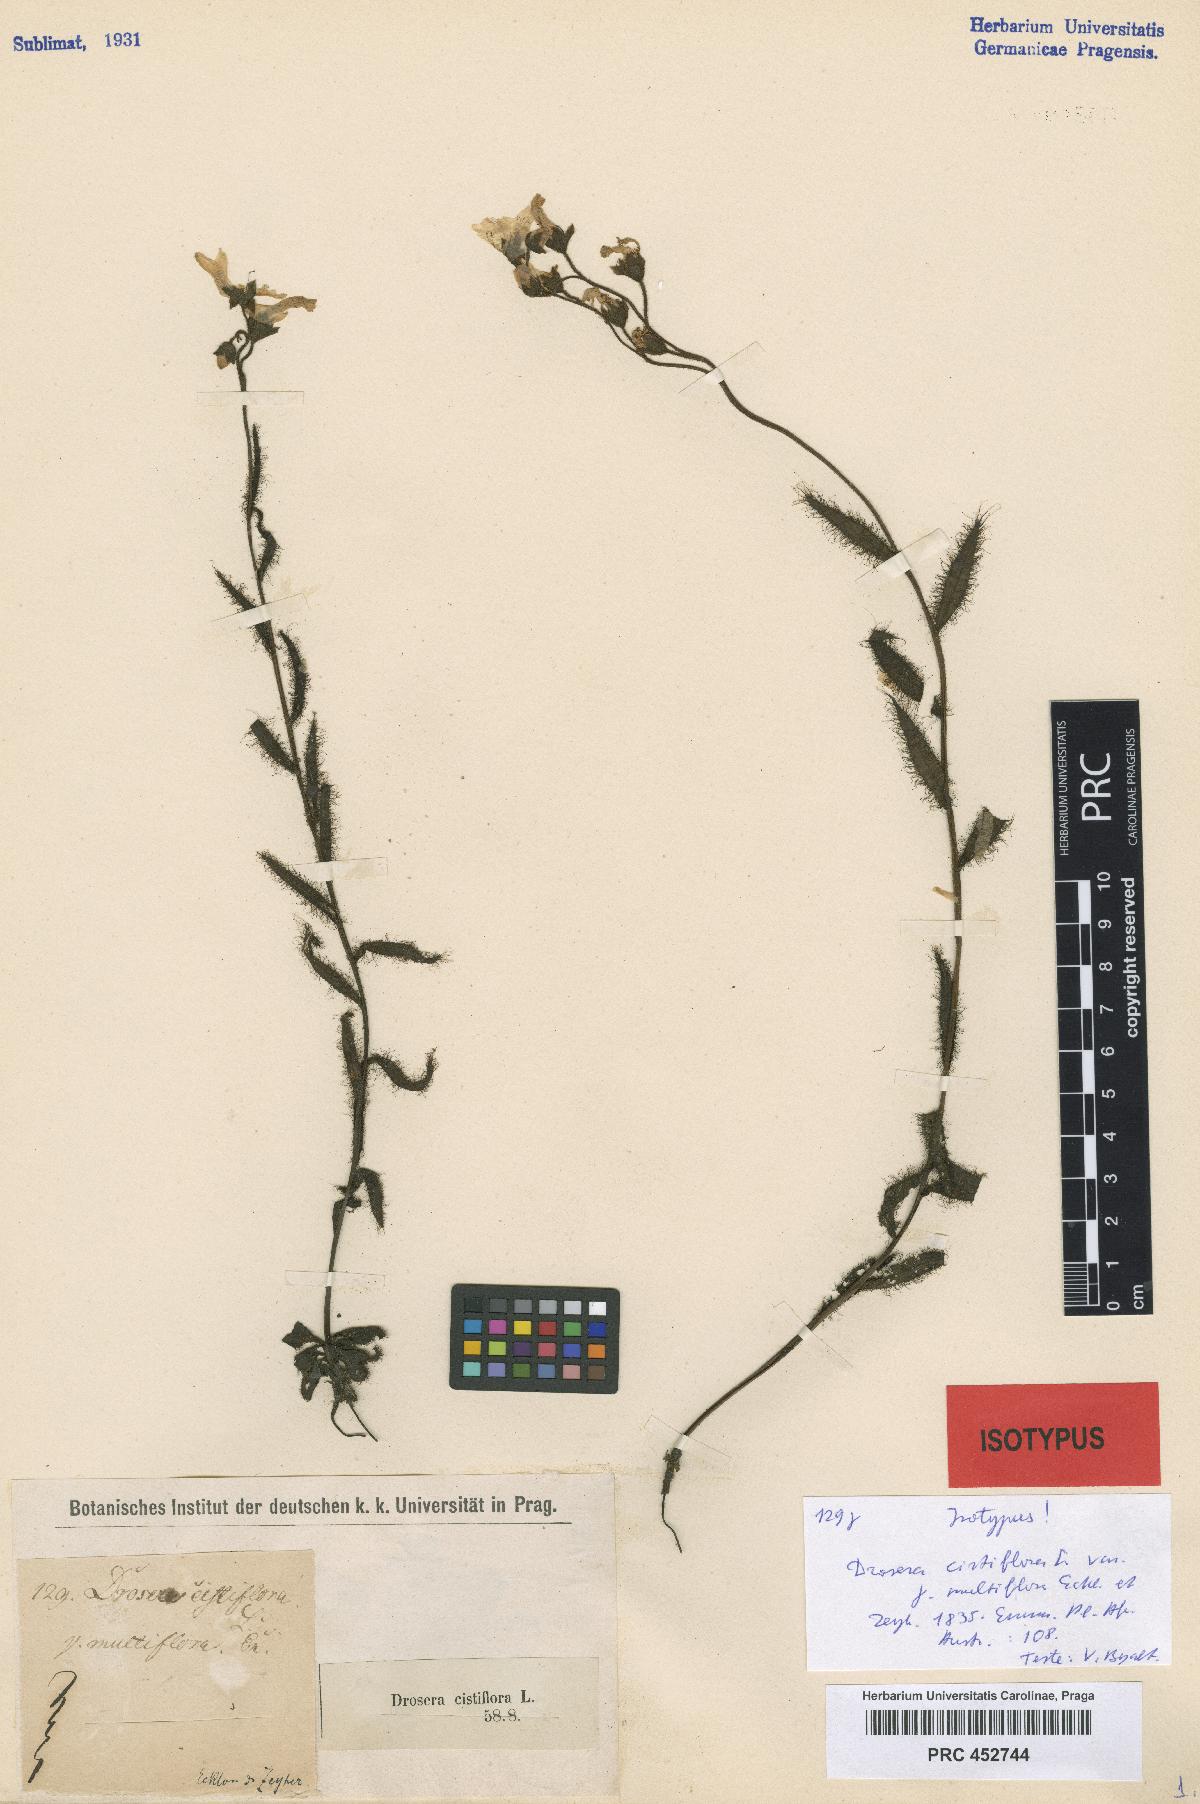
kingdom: Plantae
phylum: Tracheophyta
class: Magnoliopsida
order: Caryophyllales
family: Droseraceae
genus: Drosera
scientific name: Drosera cistiflora
